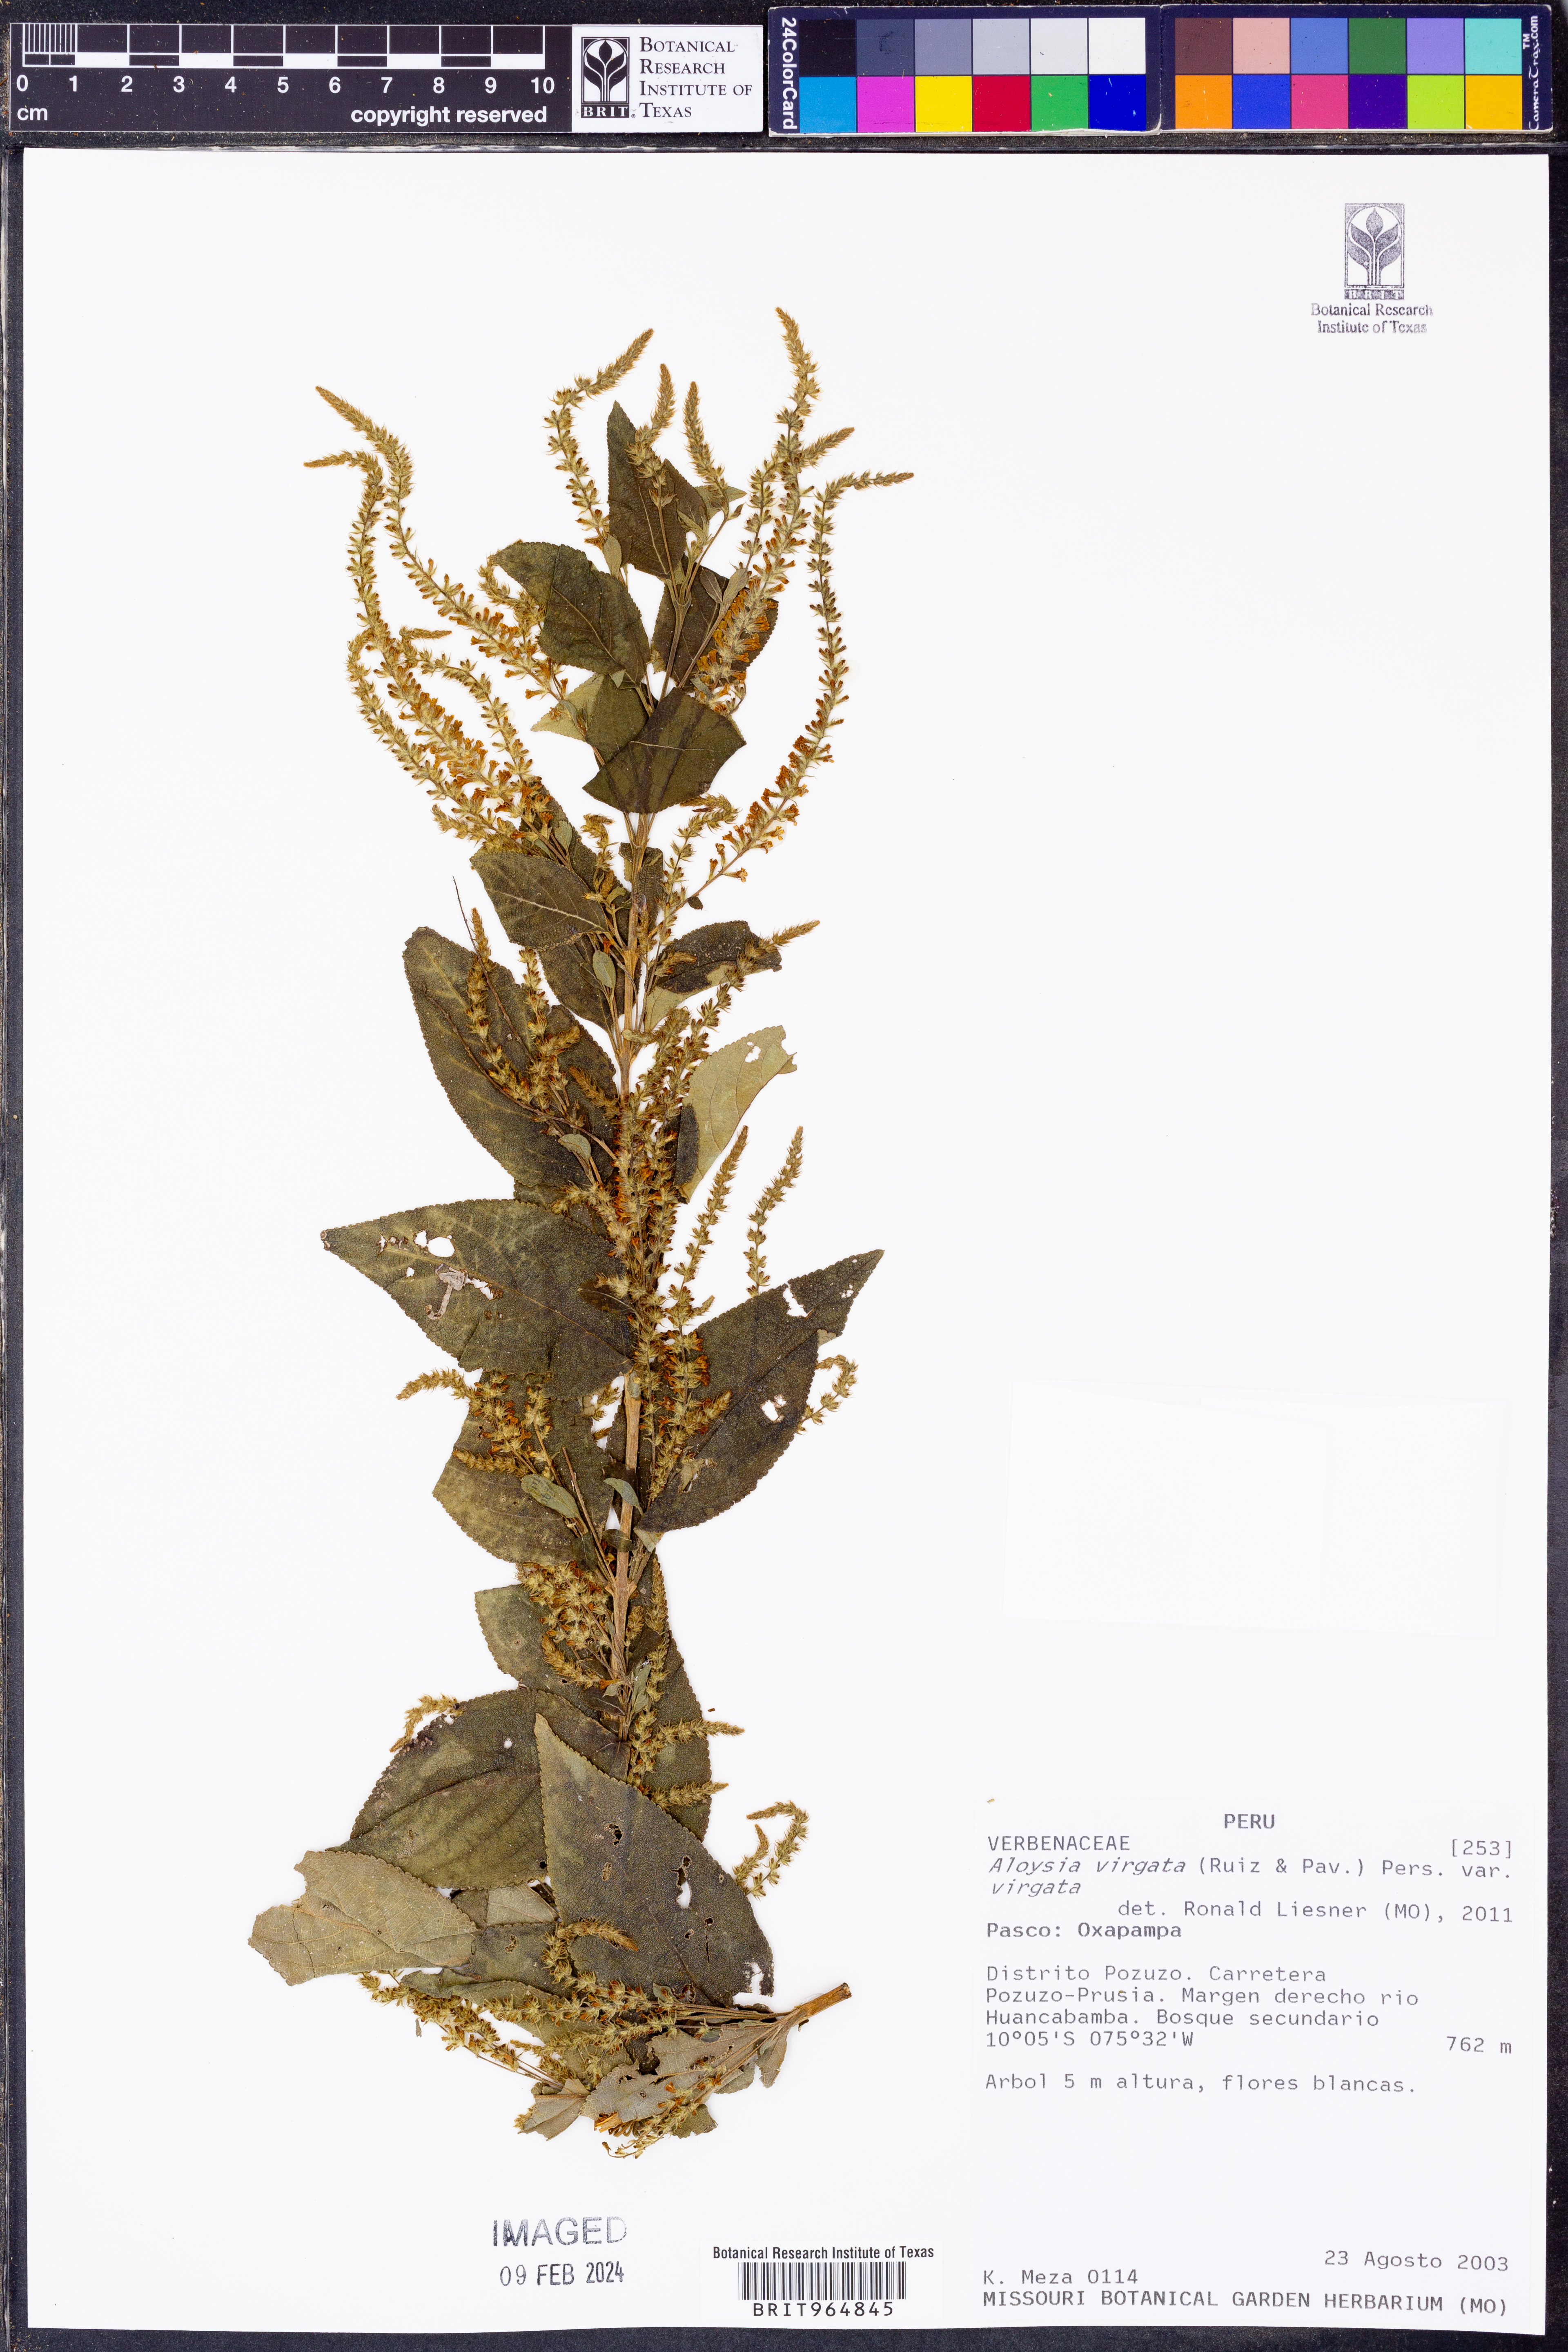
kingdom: Plantae
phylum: Tracheophyta
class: Magnoliopsida
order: Lamiales
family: Verbenaceae
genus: Aloysia
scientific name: Aloysia
